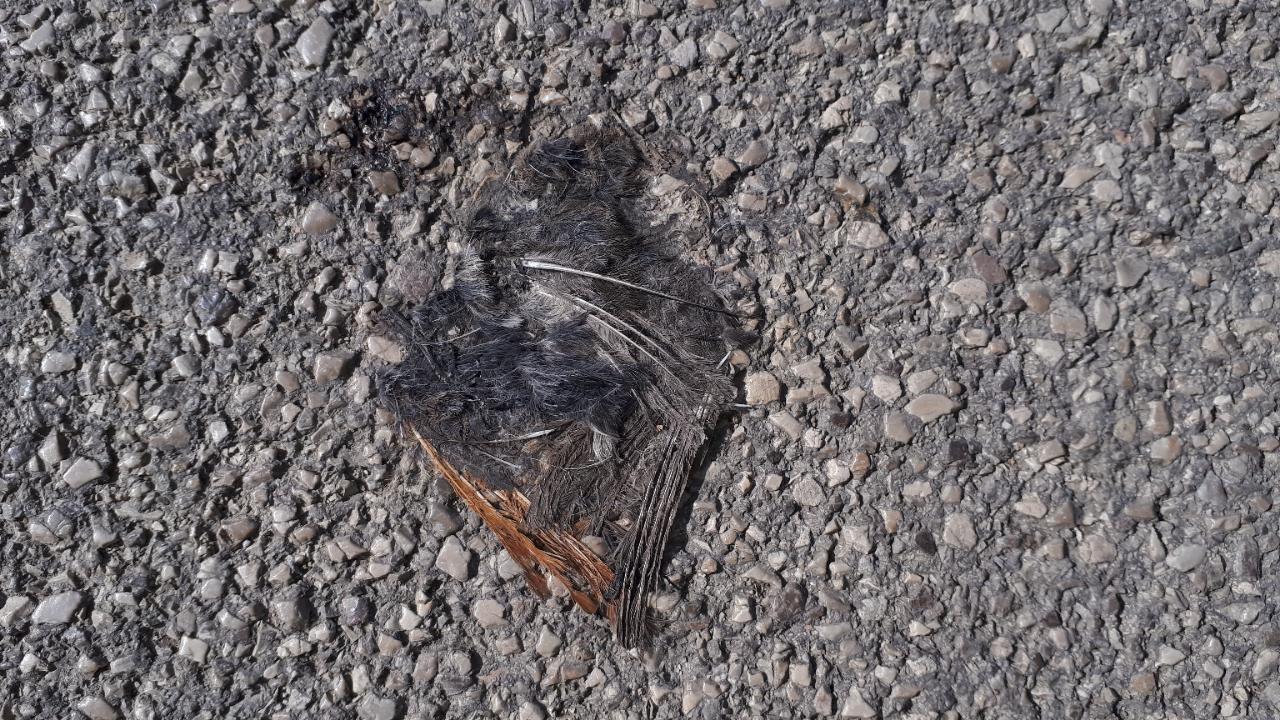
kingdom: Animalia
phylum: Chordata
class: Aves
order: Passeriformes
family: Muscicapidae
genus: Phoenicurus
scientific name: Phoenicurus
